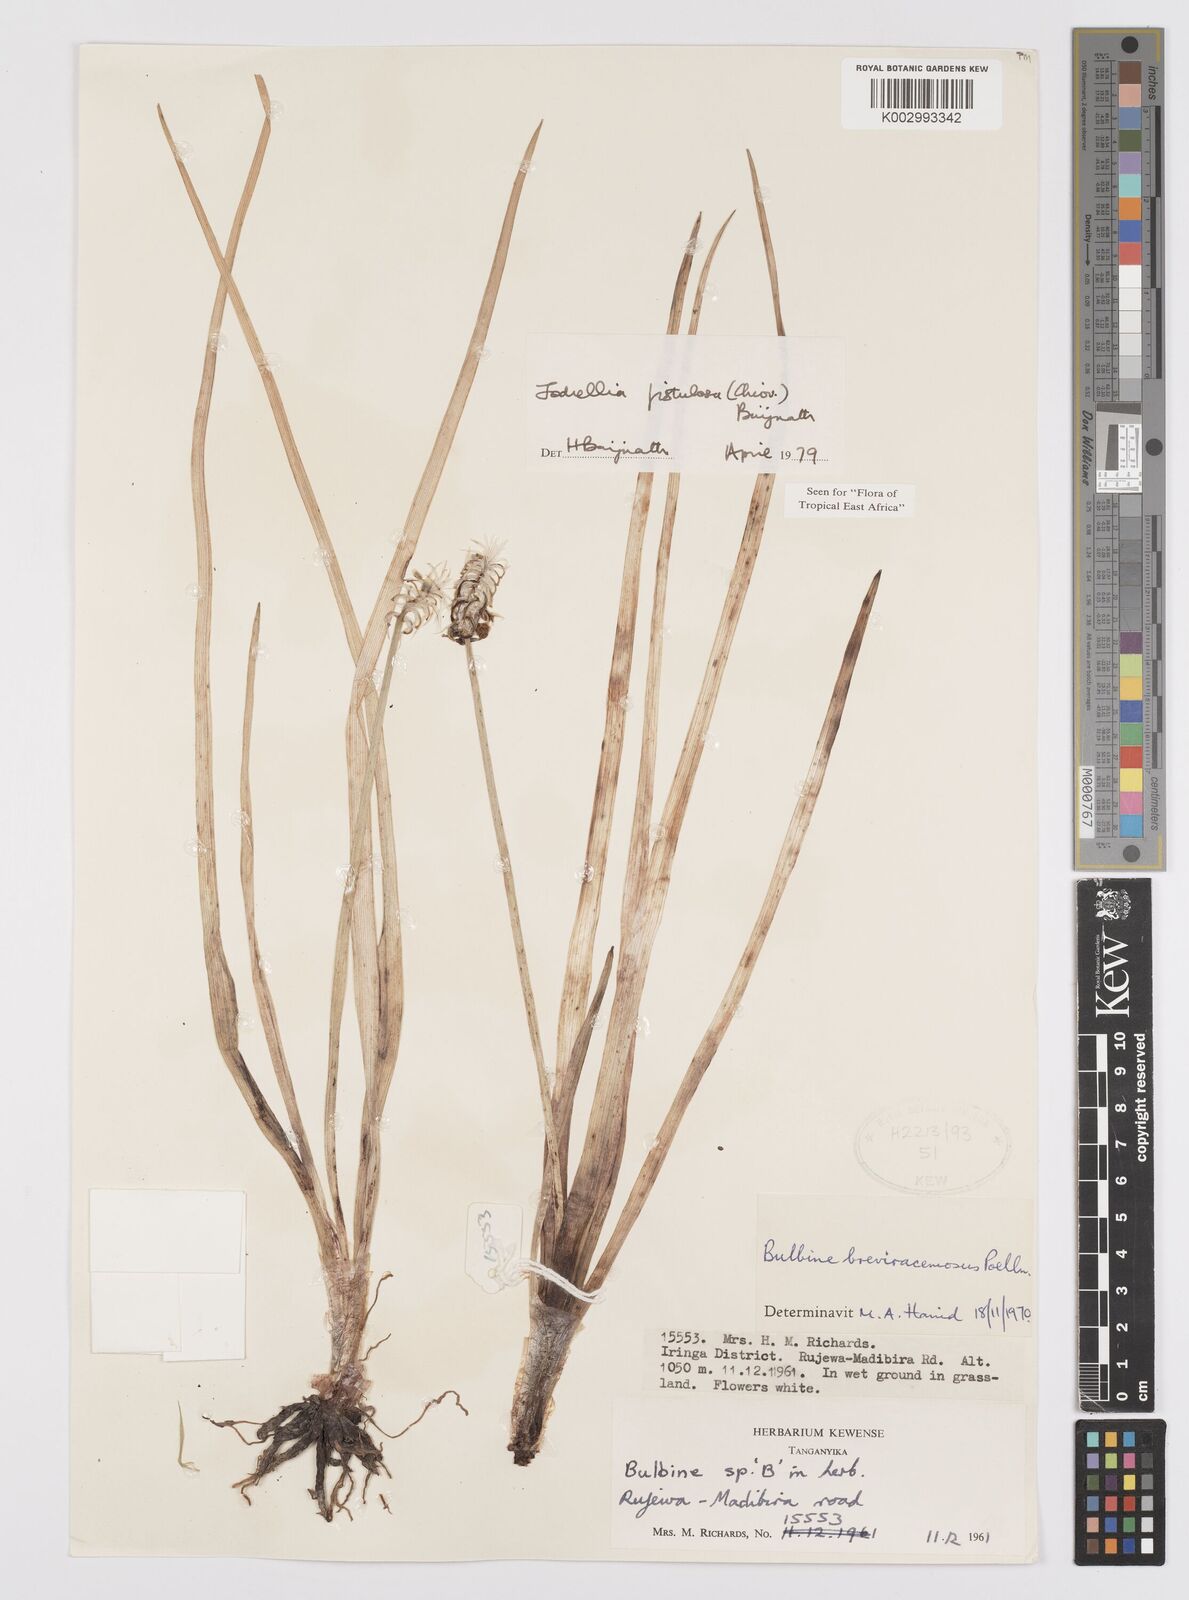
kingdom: Plantae
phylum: Tracheophyta
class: Liliopsida
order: Asparagales
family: Asphodelaceae
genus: Bulbine
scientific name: Bulbine fistulosa
